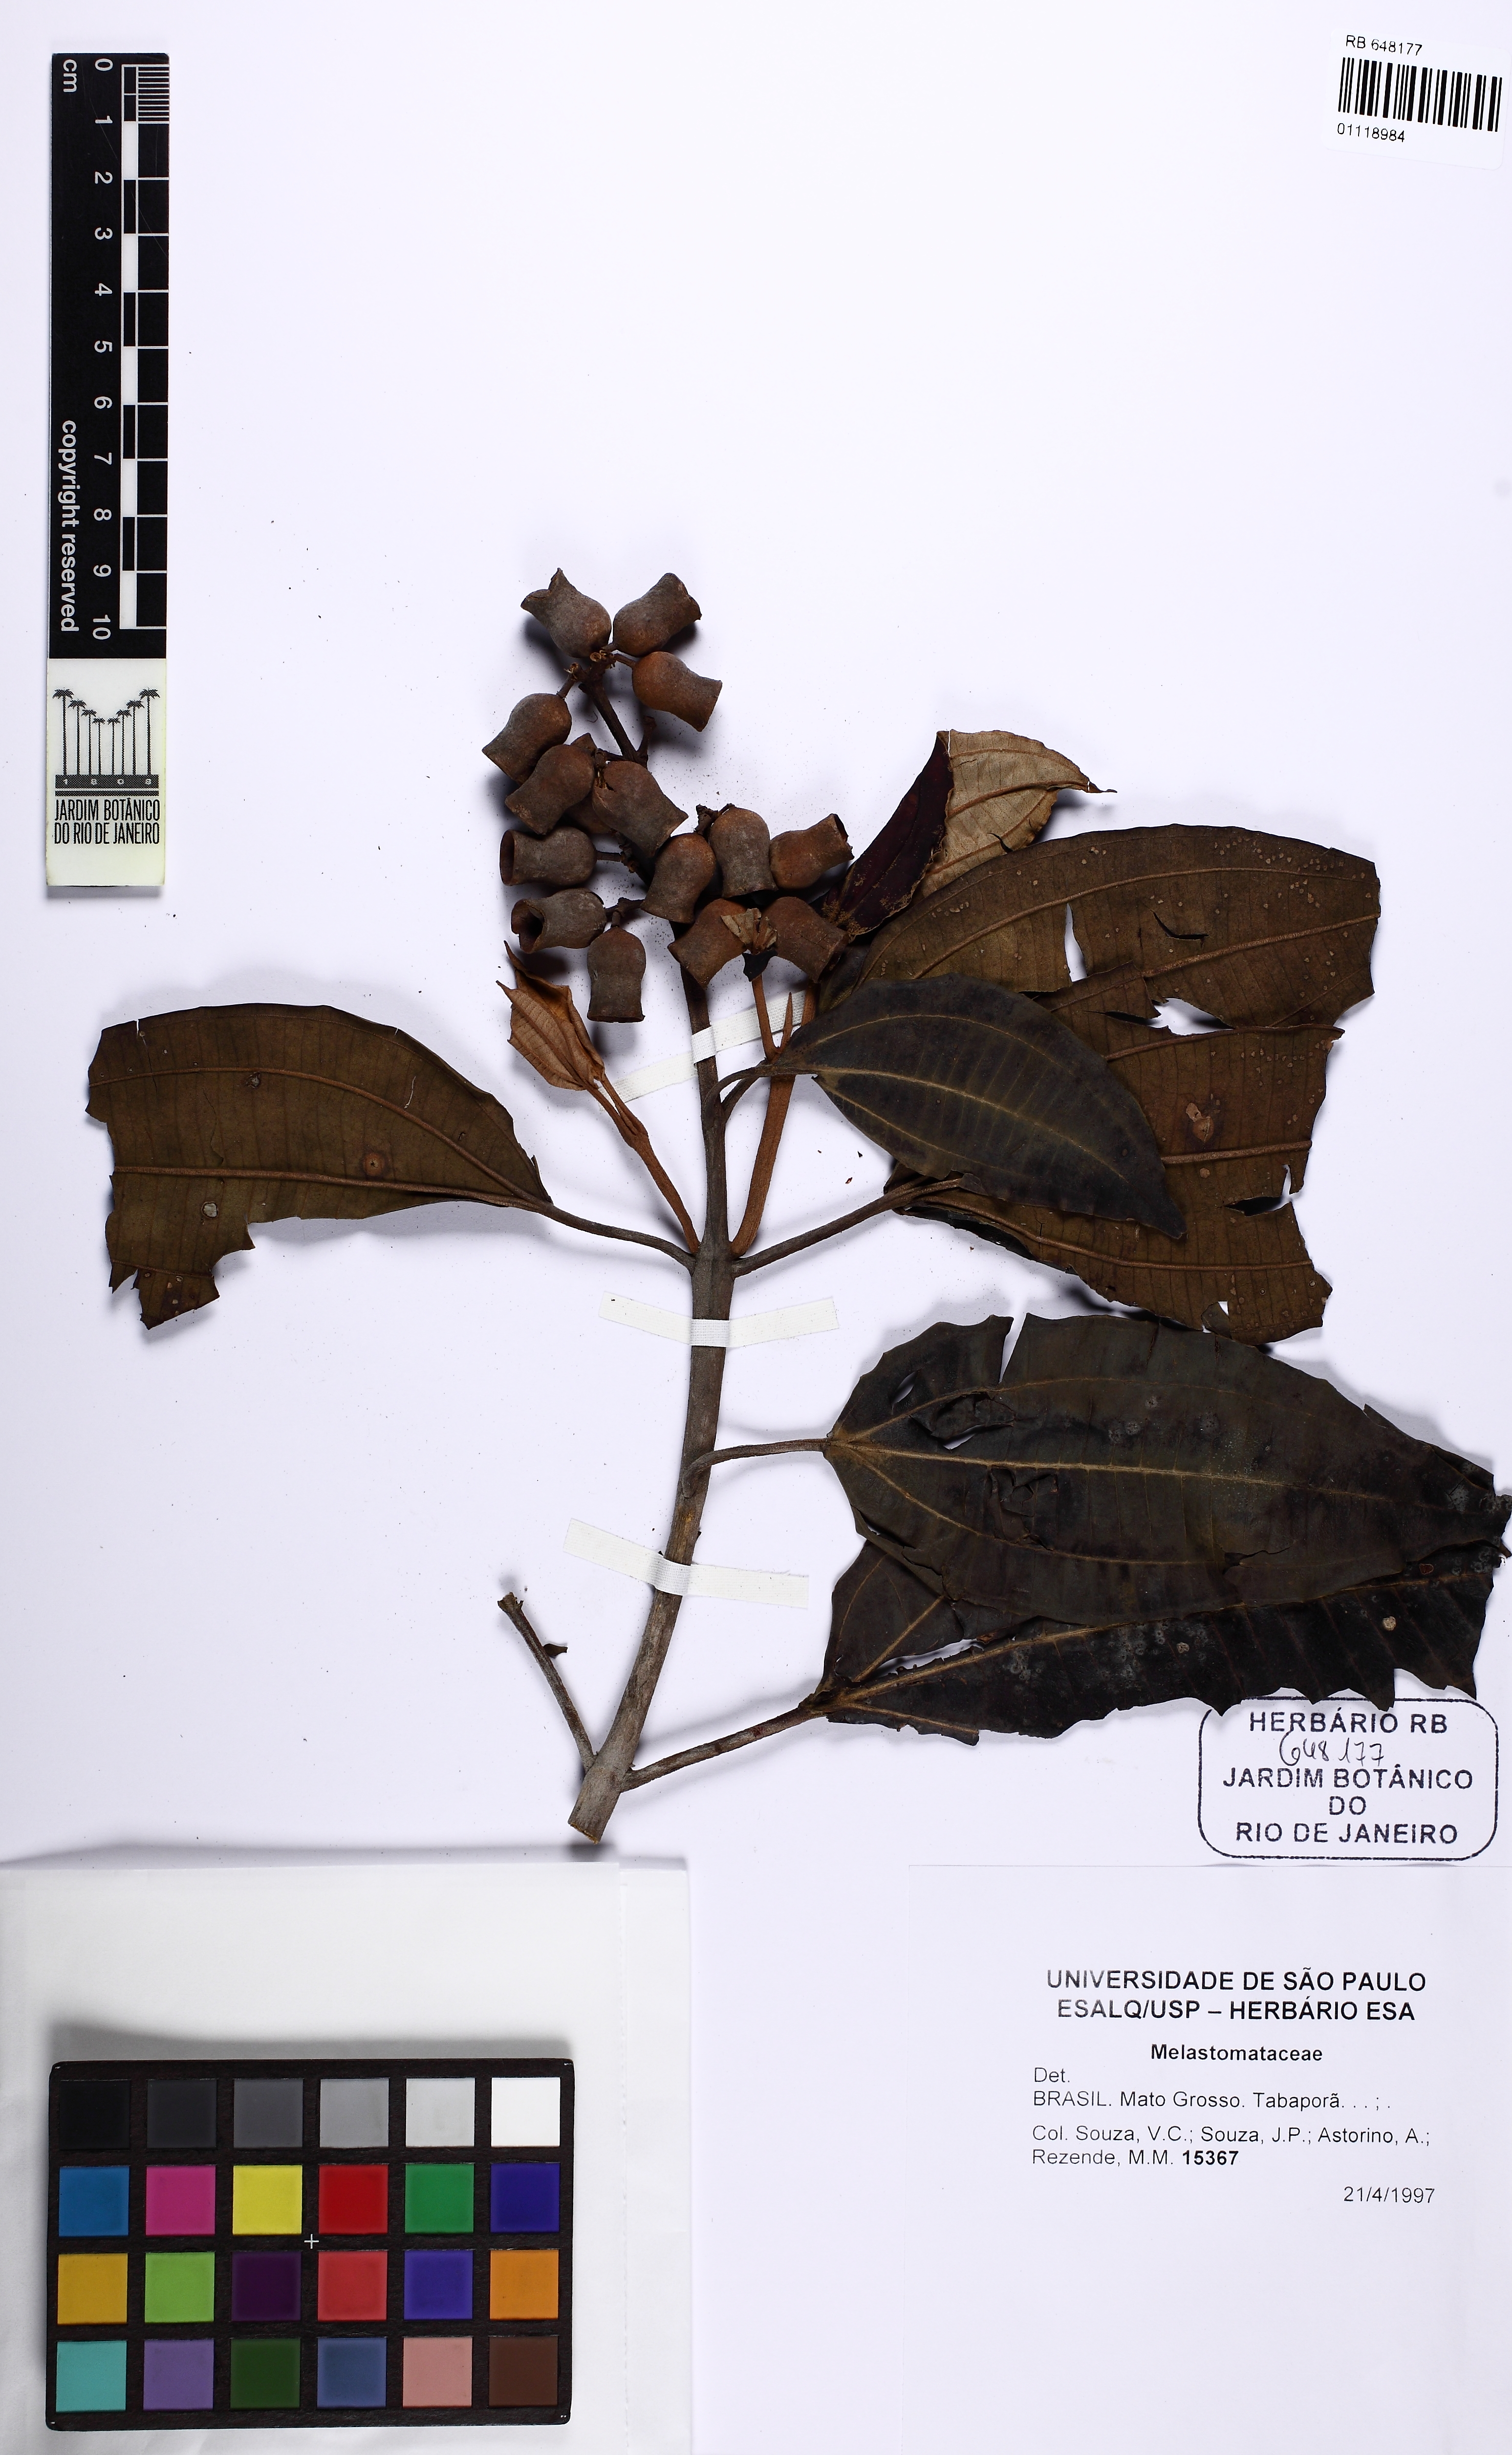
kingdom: Plantae
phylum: Tracheophyta
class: Magnoliopsida
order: Myrtales
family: Melastomataceae
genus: Meriania
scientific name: Meriania urceolata
